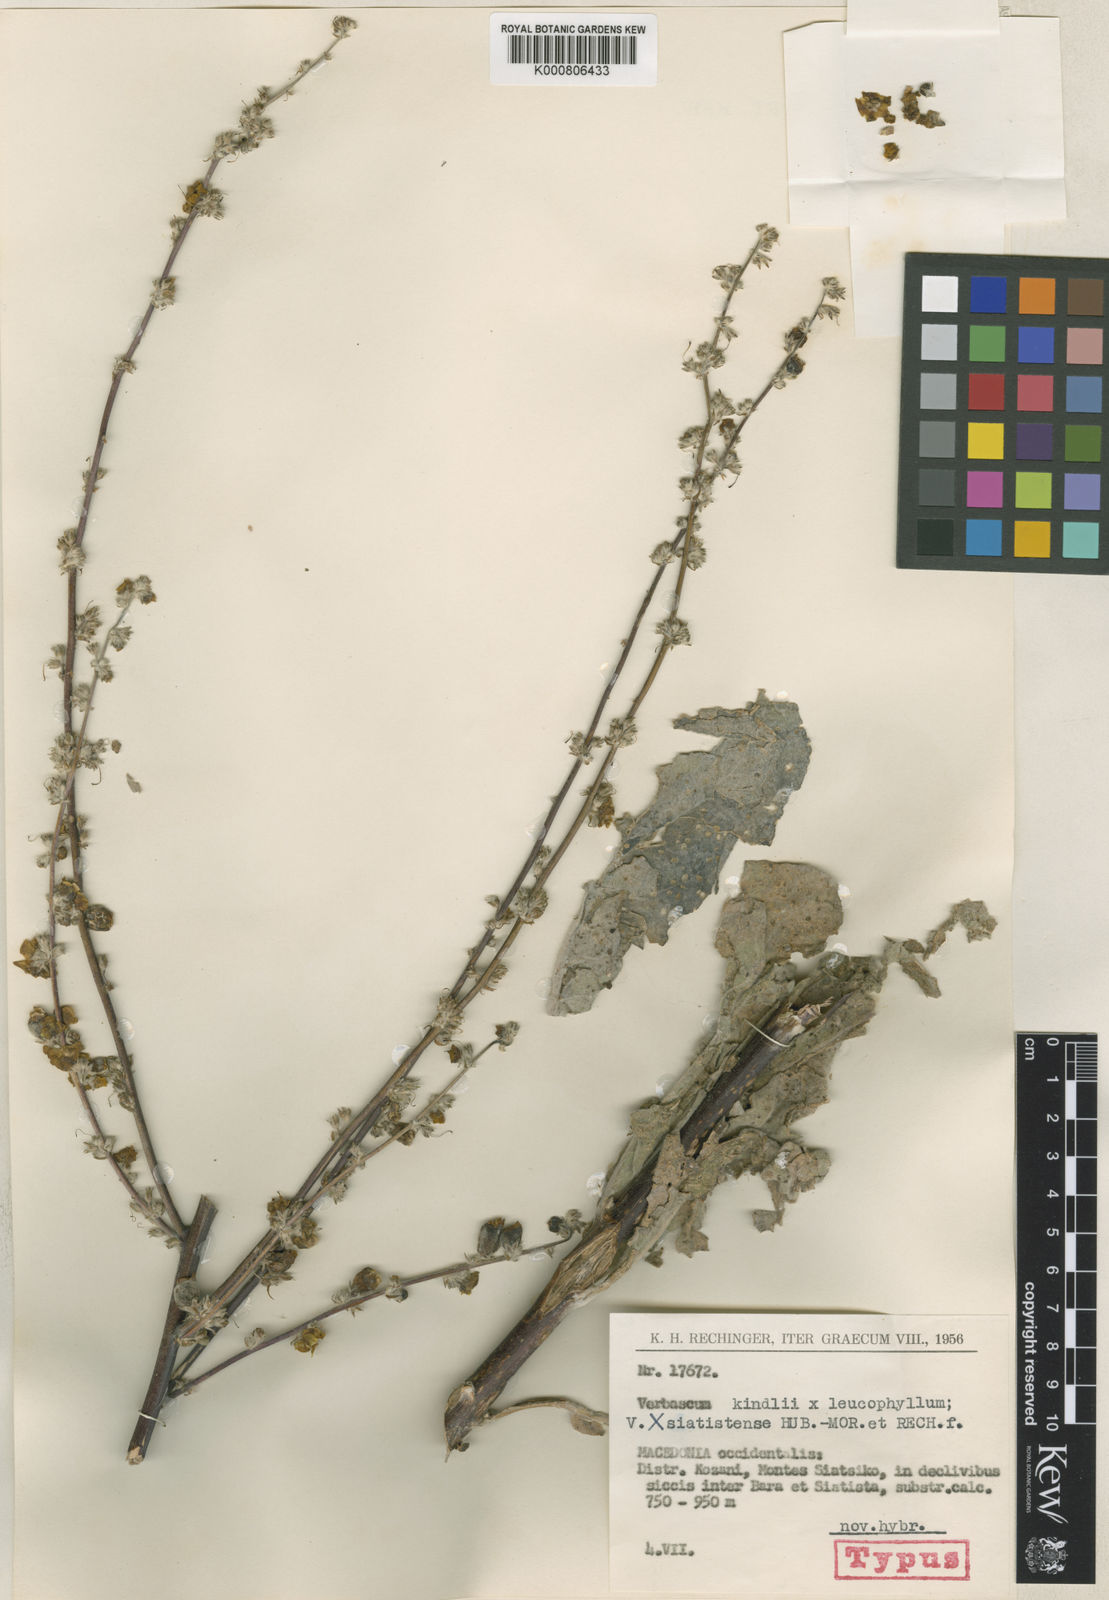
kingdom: Plantae
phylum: Tracheophyta
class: Magnoliopsida
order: Lamiales
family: Scrophulariaceae
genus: Verbascum
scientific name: Verbascum siatistense
